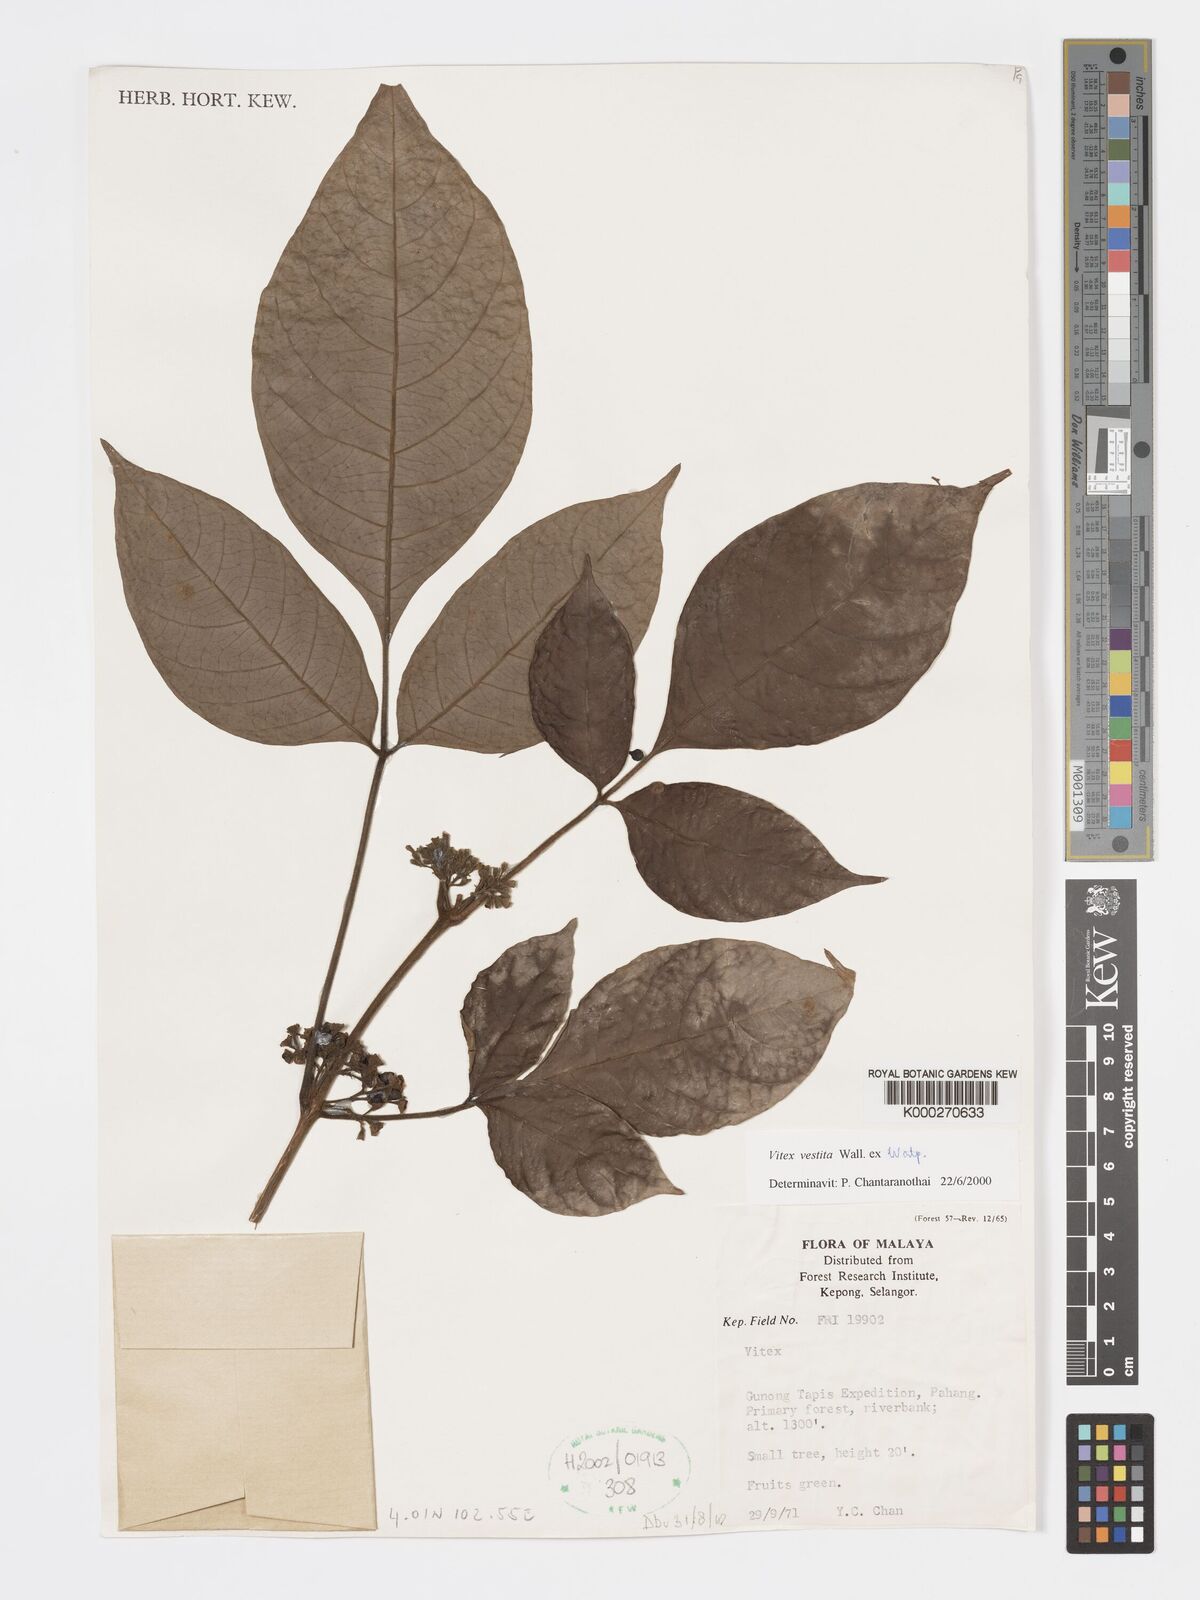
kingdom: Plantae
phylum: Tracheophyta
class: Magnoliopsida
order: Lamiales
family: Lamiaceae
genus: Vitex
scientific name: Vitex vestita
